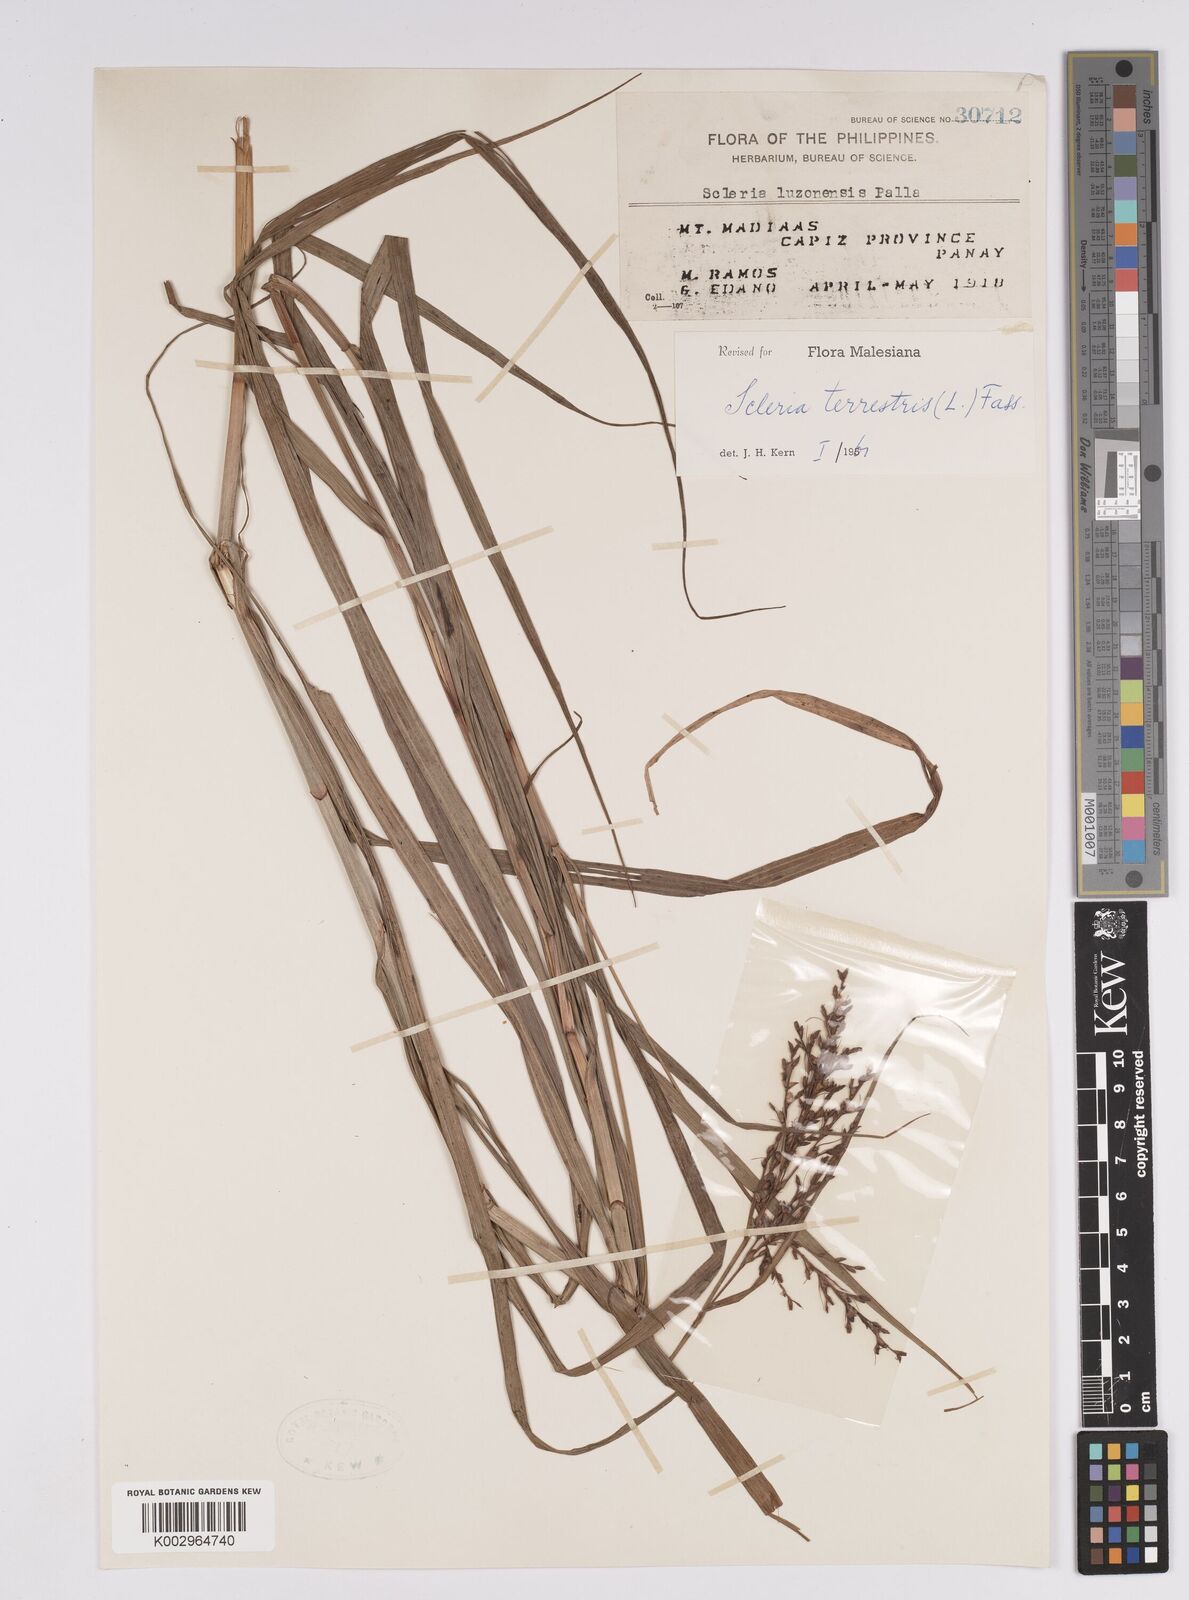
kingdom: Plantae
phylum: Tracheophyta
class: Liliopsida
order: Poales
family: Cyperaceae
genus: Scleria
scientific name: Scleria terrestris
